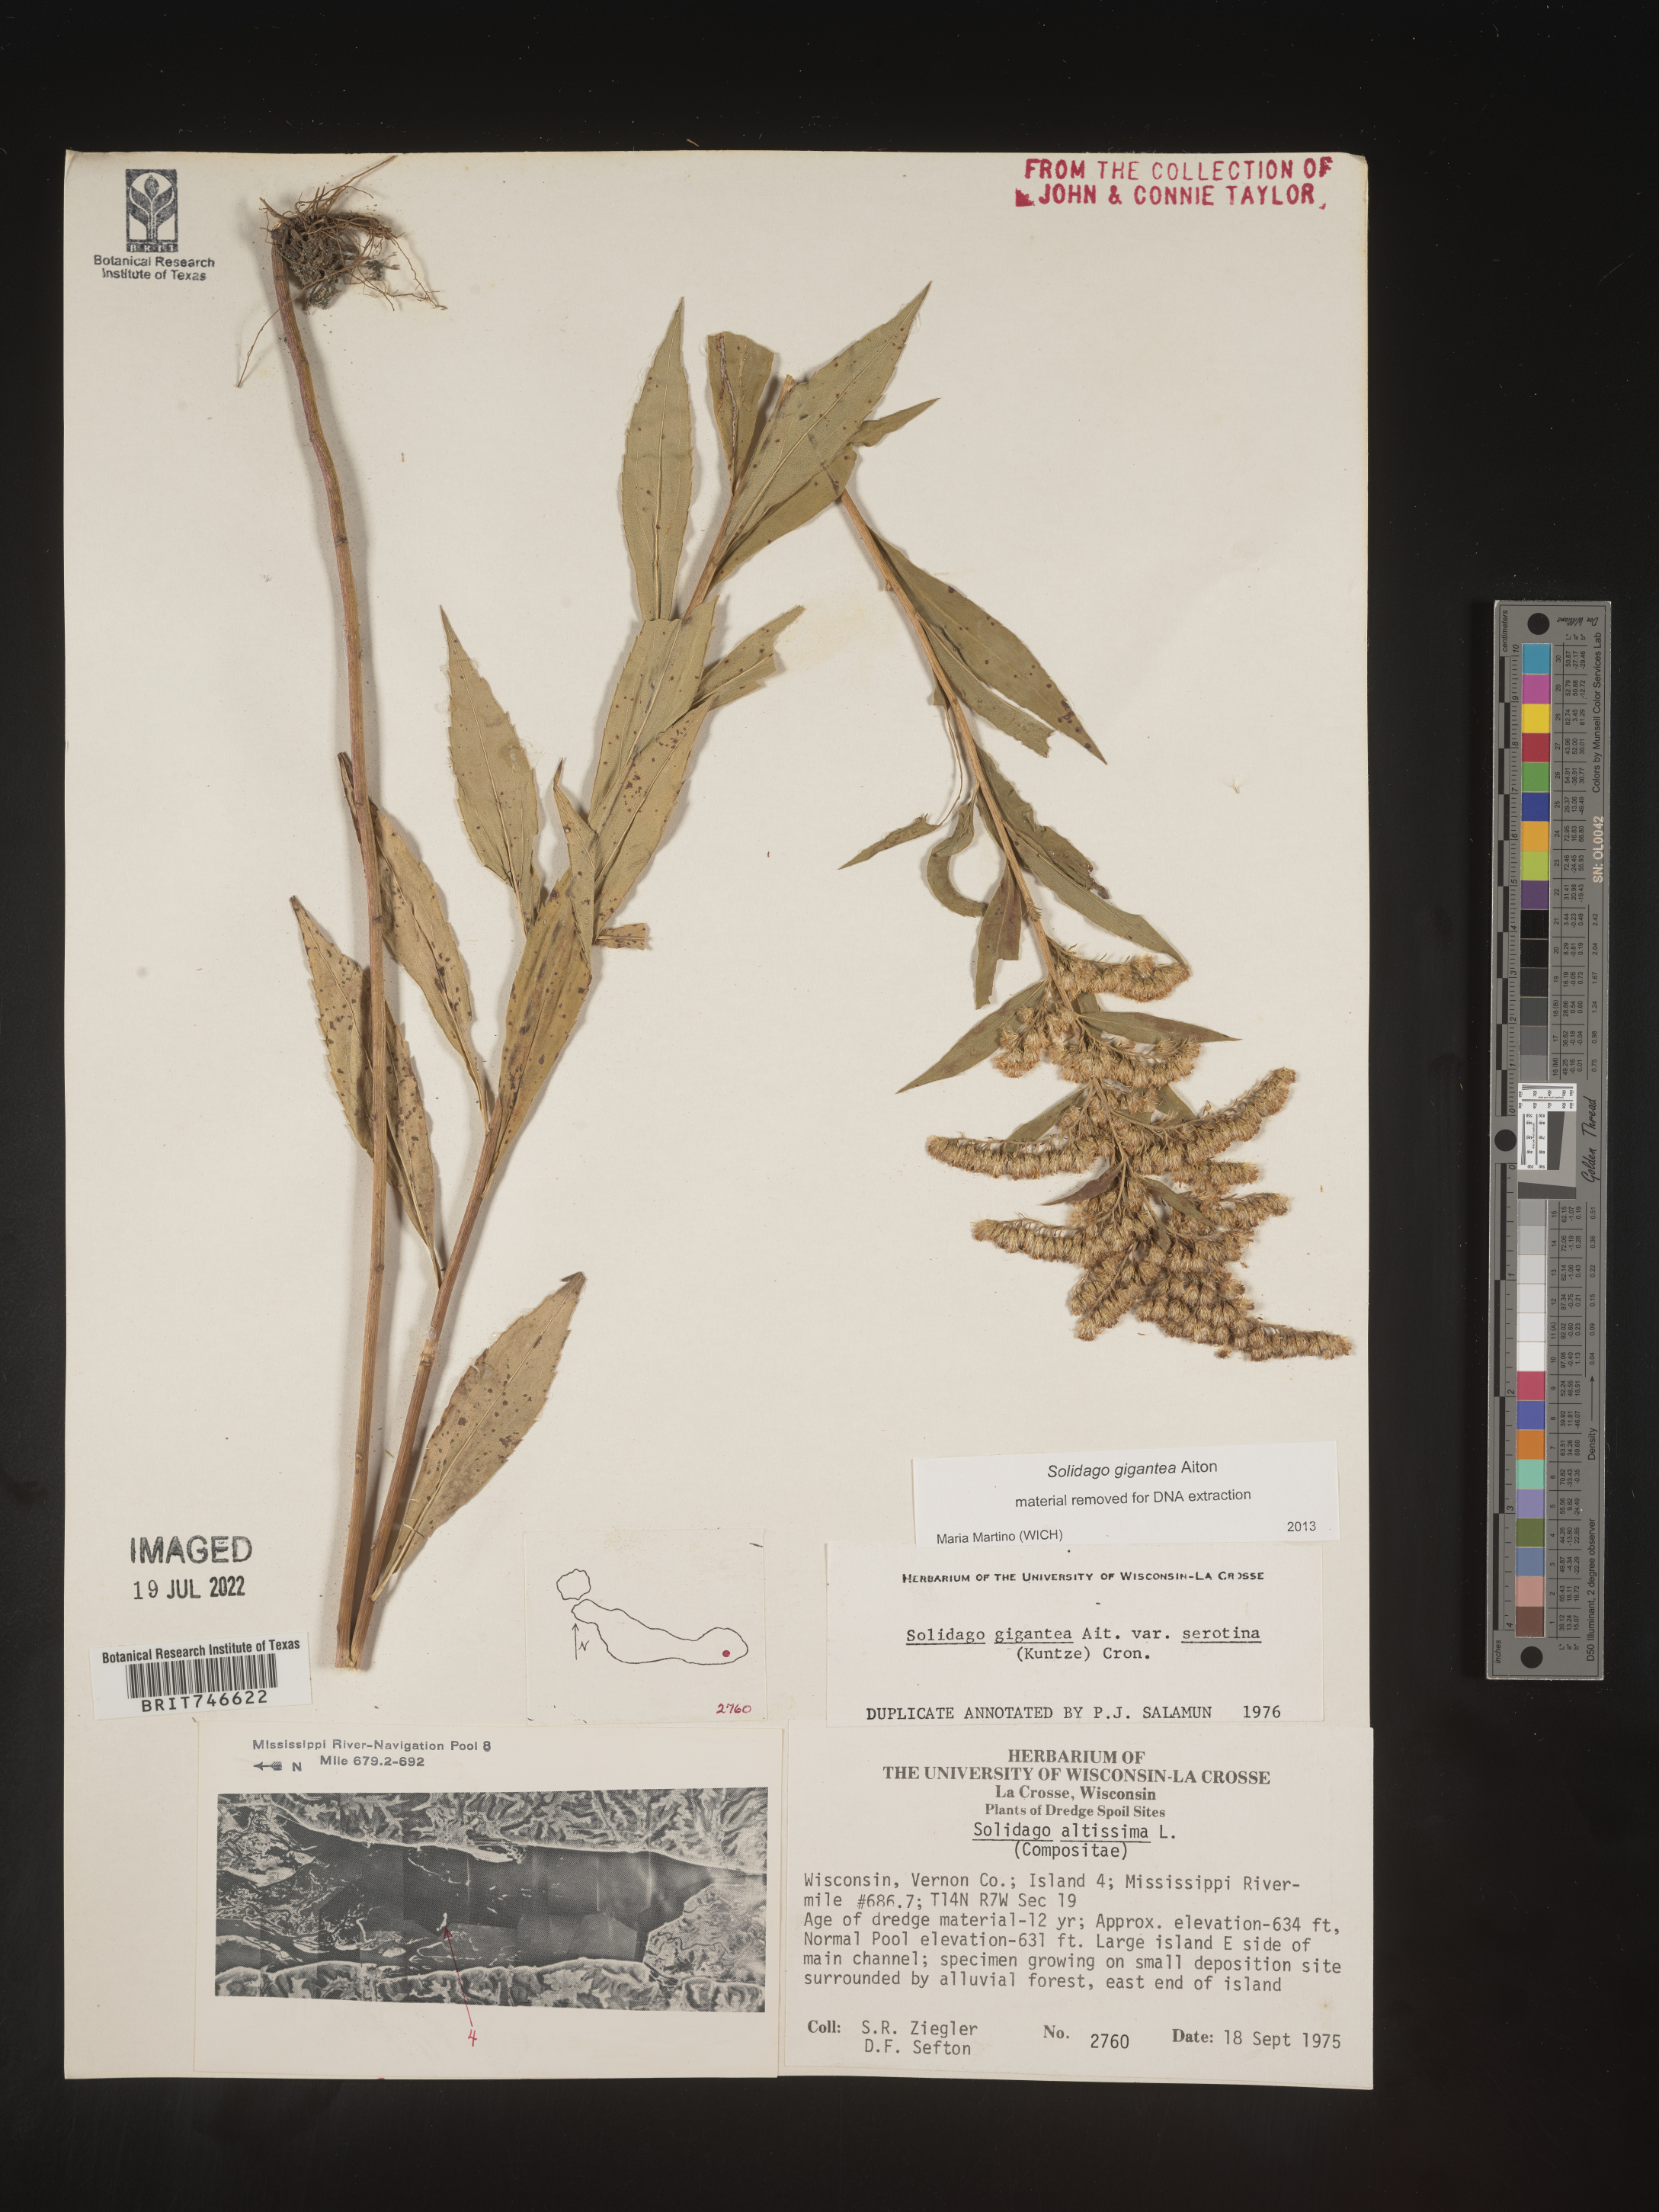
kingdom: Plantae
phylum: Tracheophyta
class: Magnoliopsida
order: Asterales
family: Asteraceae
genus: Solidago
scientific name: Solidago gigantea
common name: Giant goldenrod
